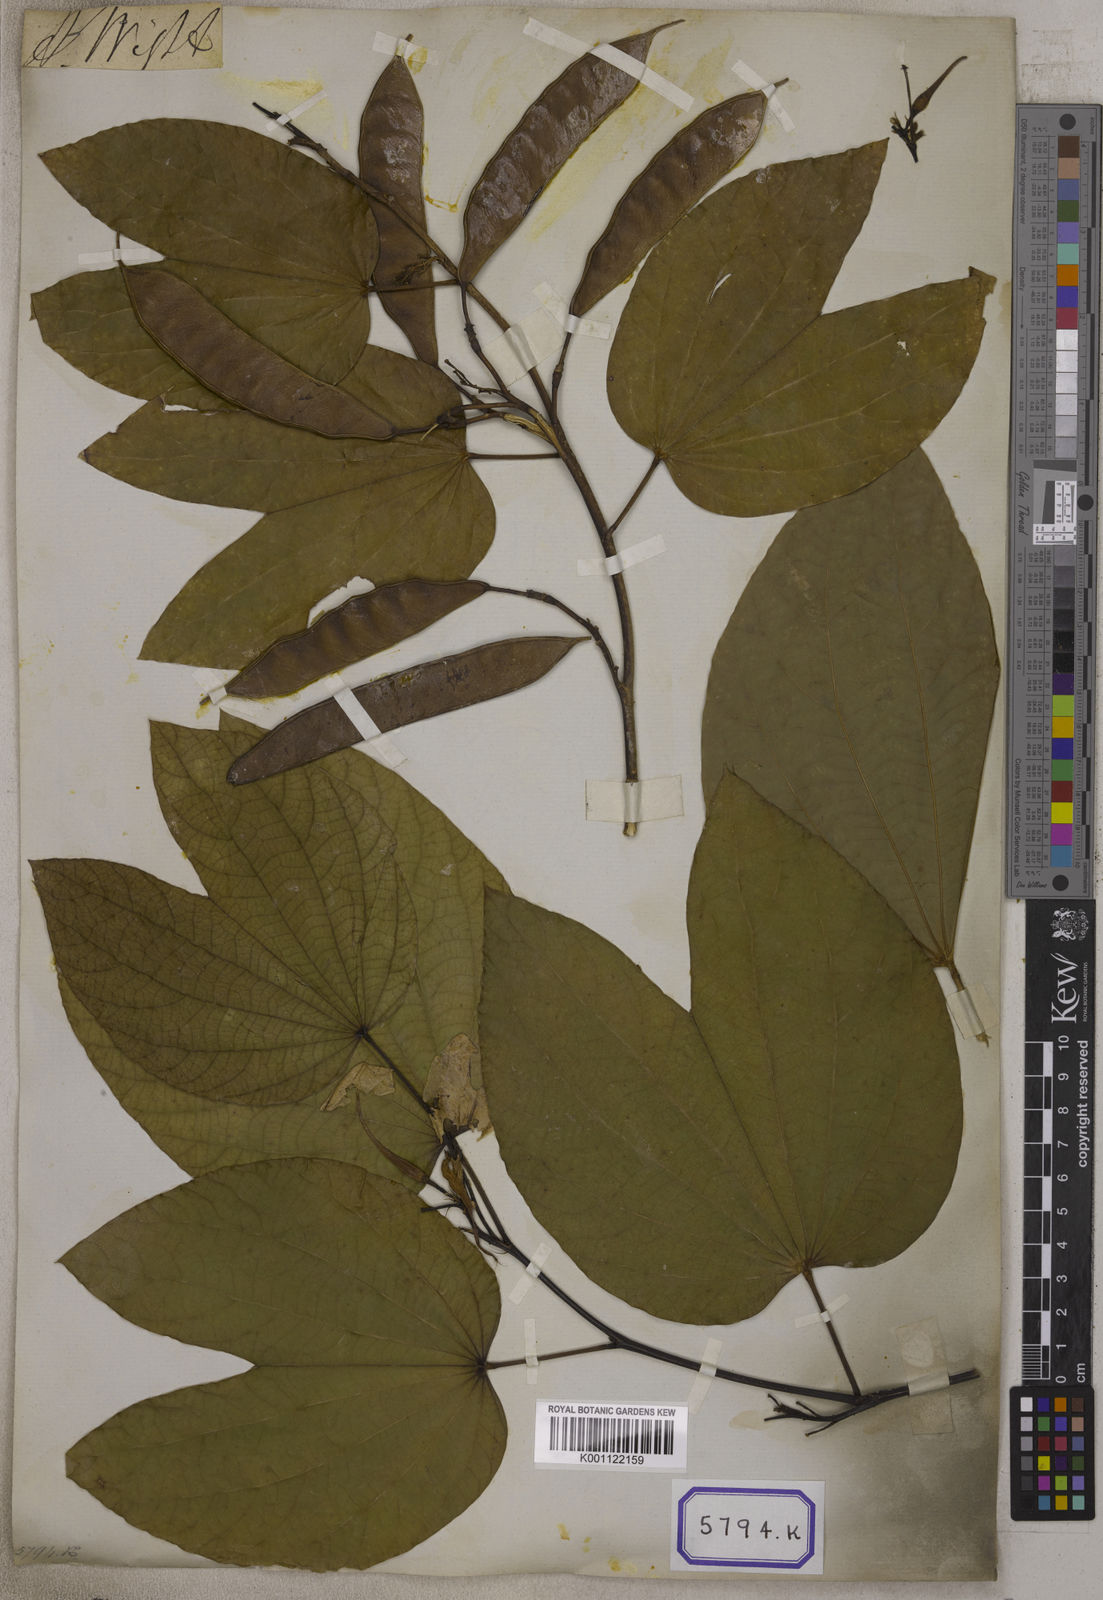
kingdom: Plantae
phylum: Tracheophyta
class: Magnoliopsida
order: Fabales
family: Fabaceae
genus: Bauhinia
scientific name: Bauhinia acuminata
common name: Dwarf white bauhinia
